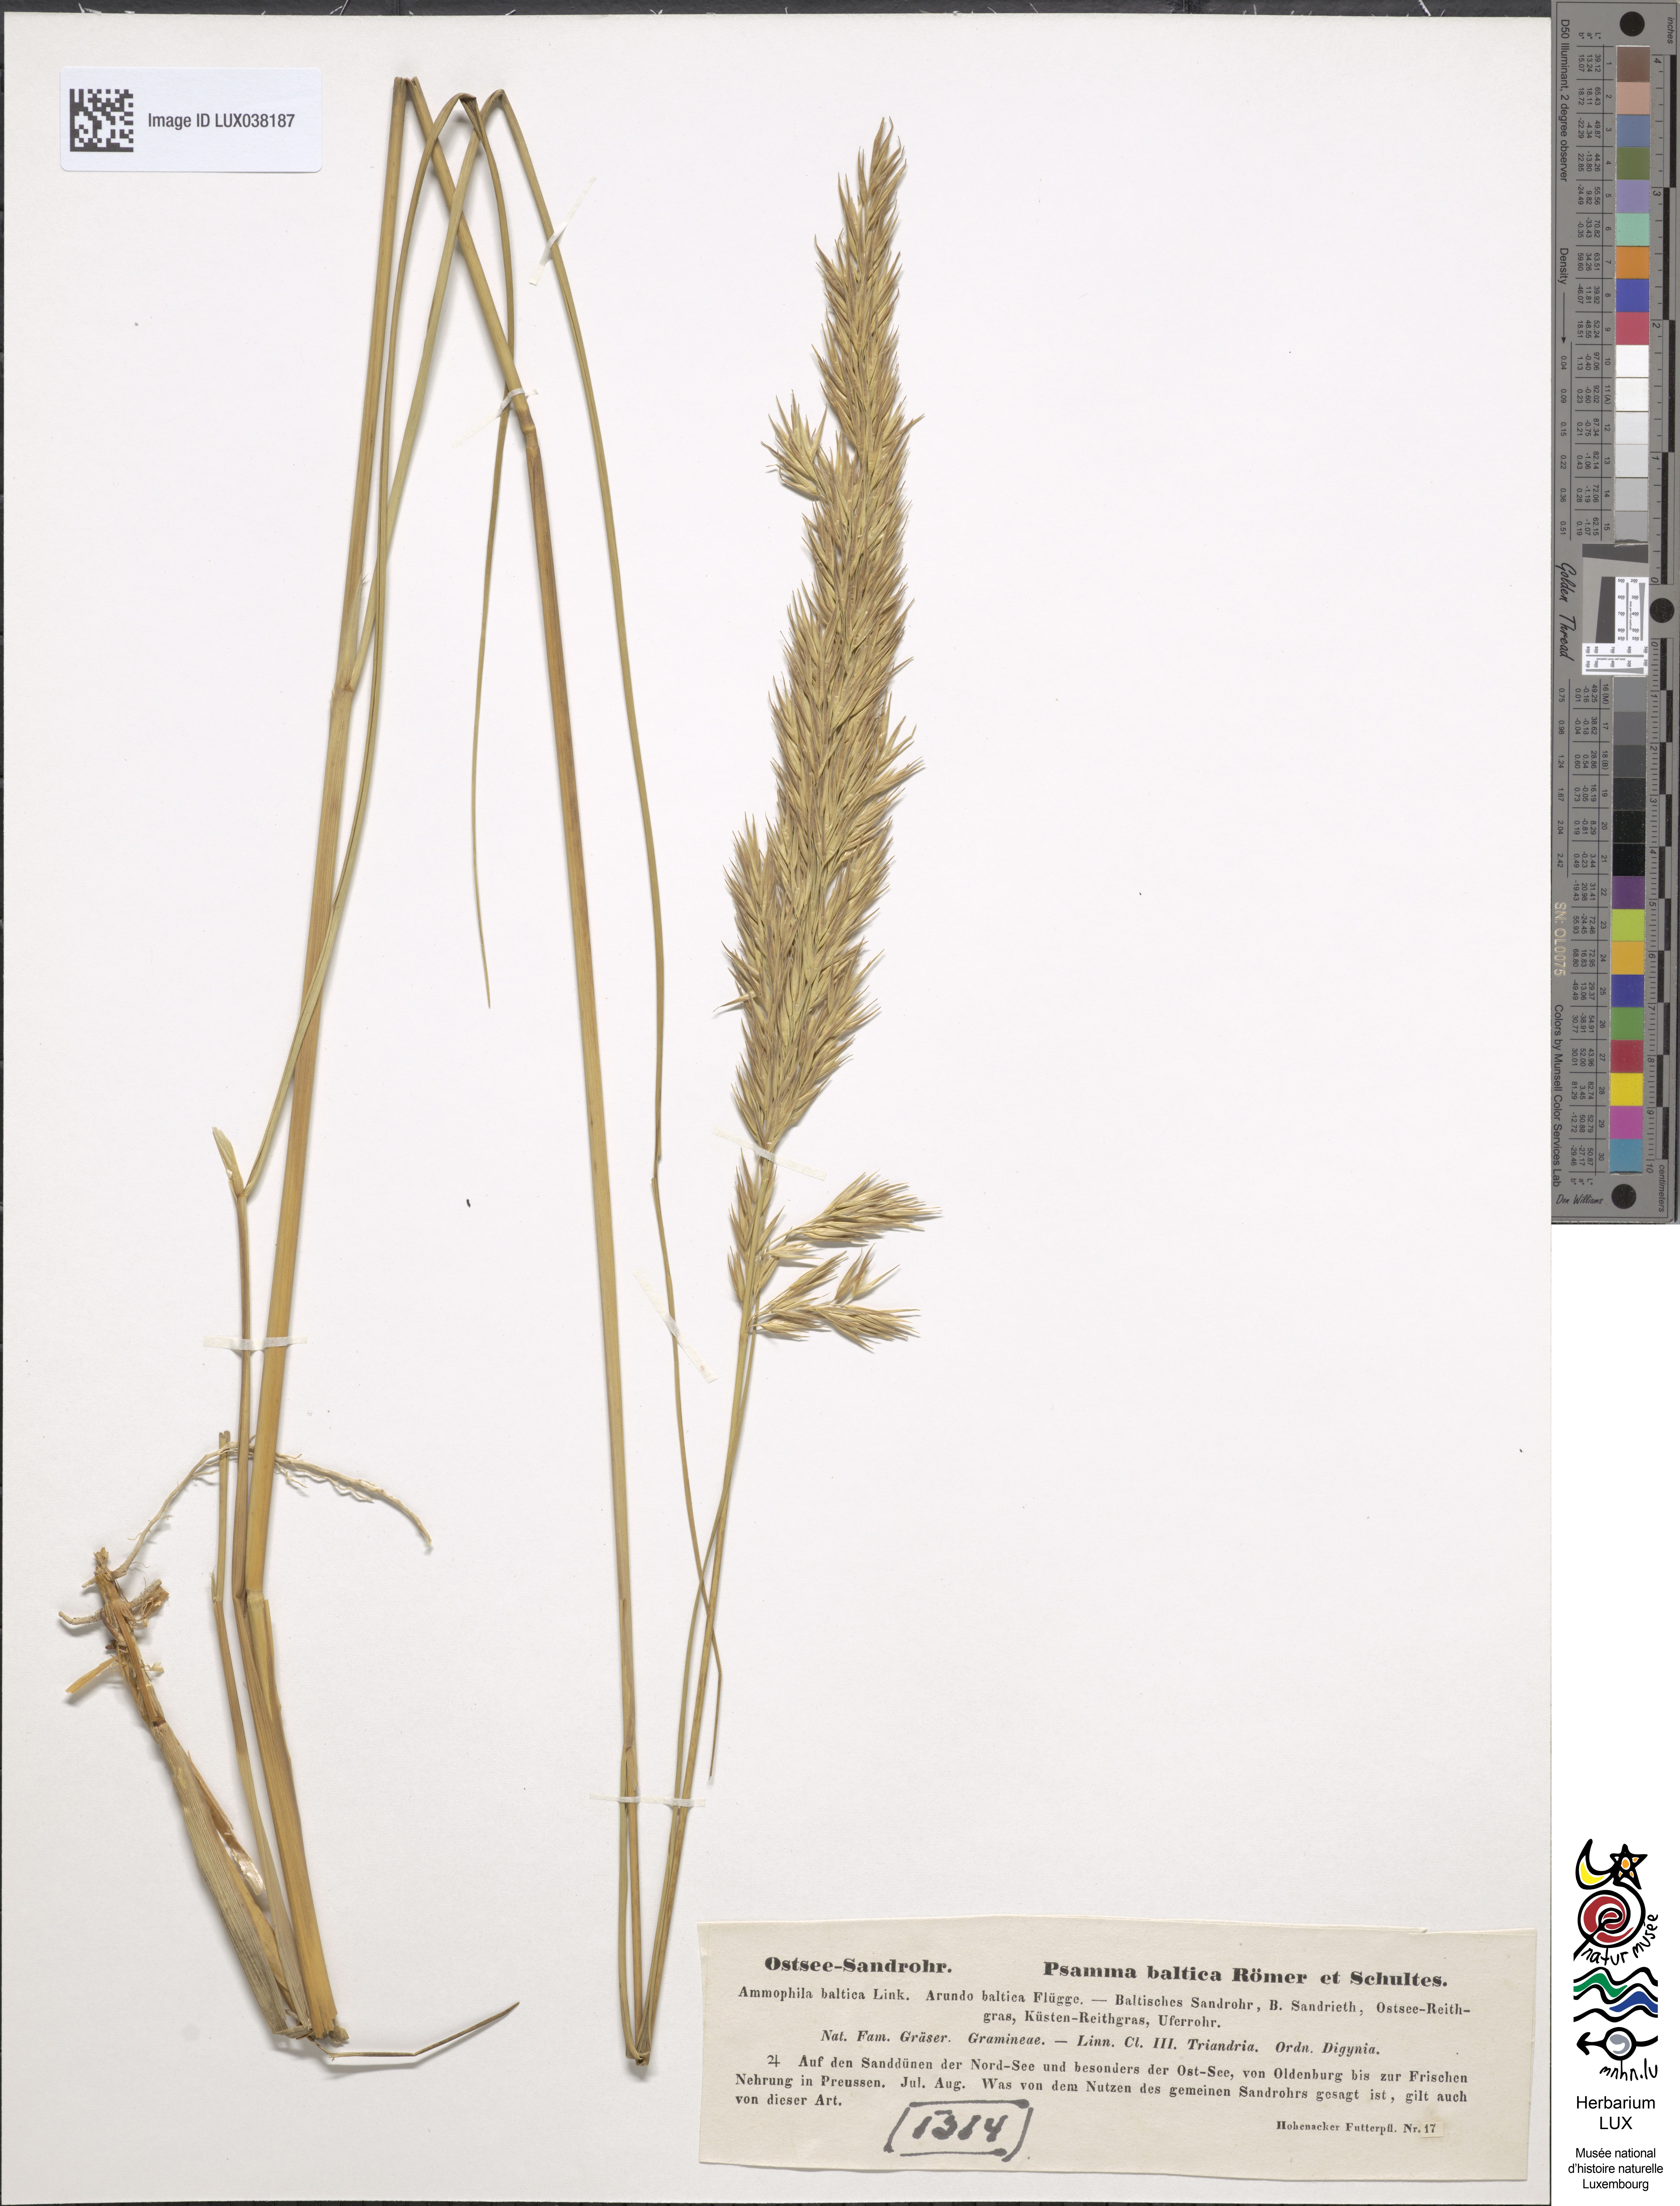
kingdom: Plantae
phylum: Tracheophyta
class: Liliopsida
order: Poales
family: Poaceae
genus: Calamagrostis
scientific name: Calamagrostis baltica
